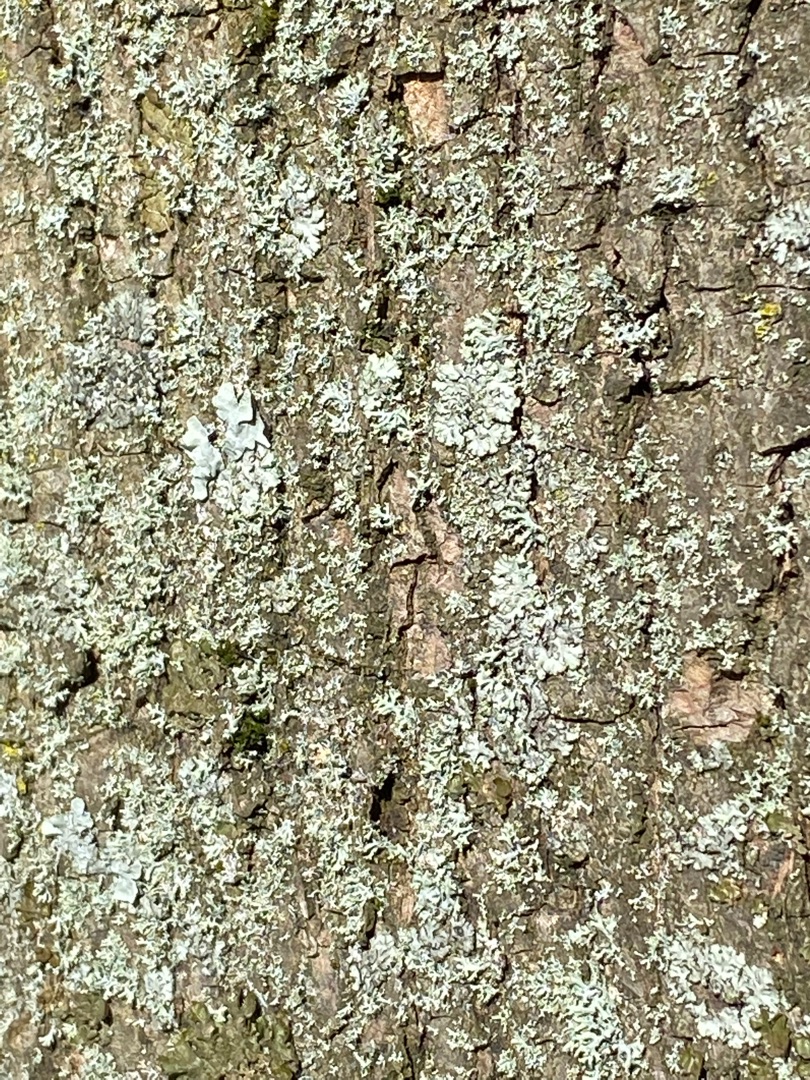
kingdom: Fungi
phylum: Ascomycota
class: Lecanoromycetes
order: Caliciales
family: Physciaceae
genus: Physconia
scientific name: Physconia
